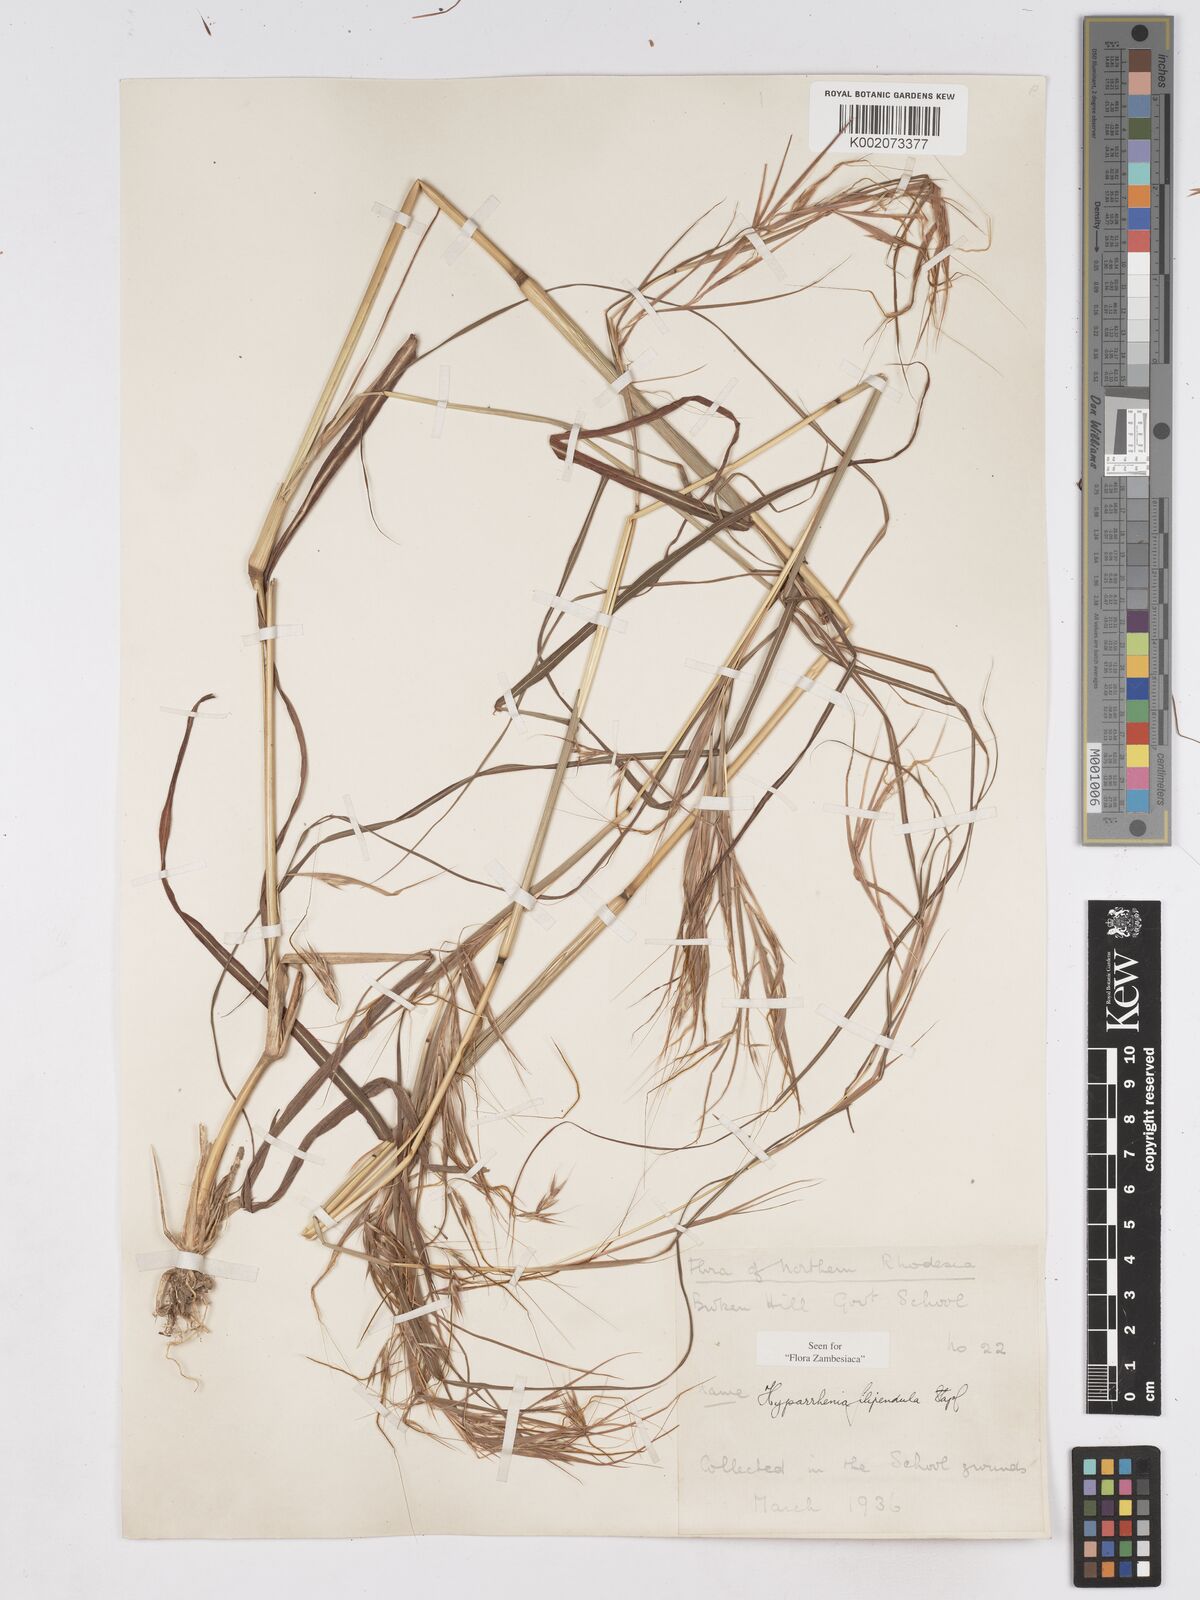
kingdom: Plantae
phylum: Tracheophyta
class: Liliopsida
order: Poales
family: Poaceae
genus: Hyparrhenia
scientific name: Hyparrhenia filipendula
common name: Tambookie grass
